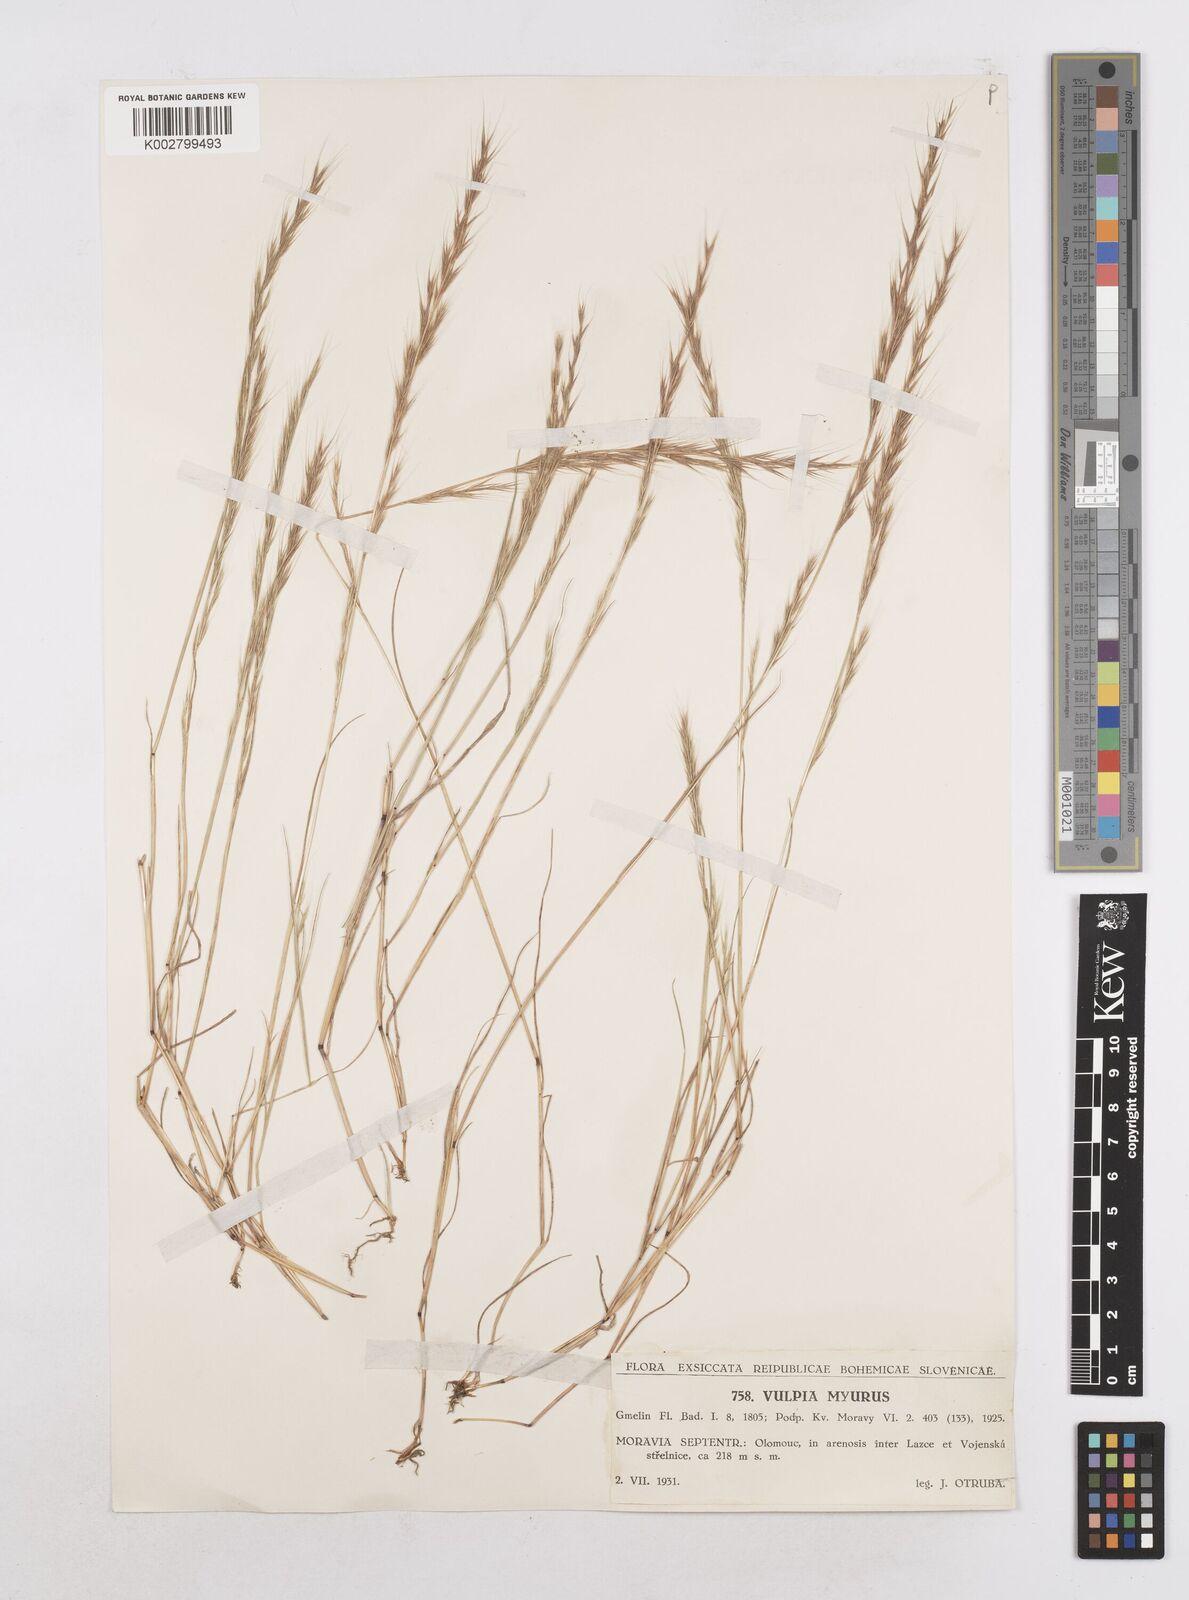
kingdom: Plantae
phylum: Tracheophyta
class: Liliopsida
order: Poales
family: Poaceae
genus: Festuca
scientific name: Festuca myuros
